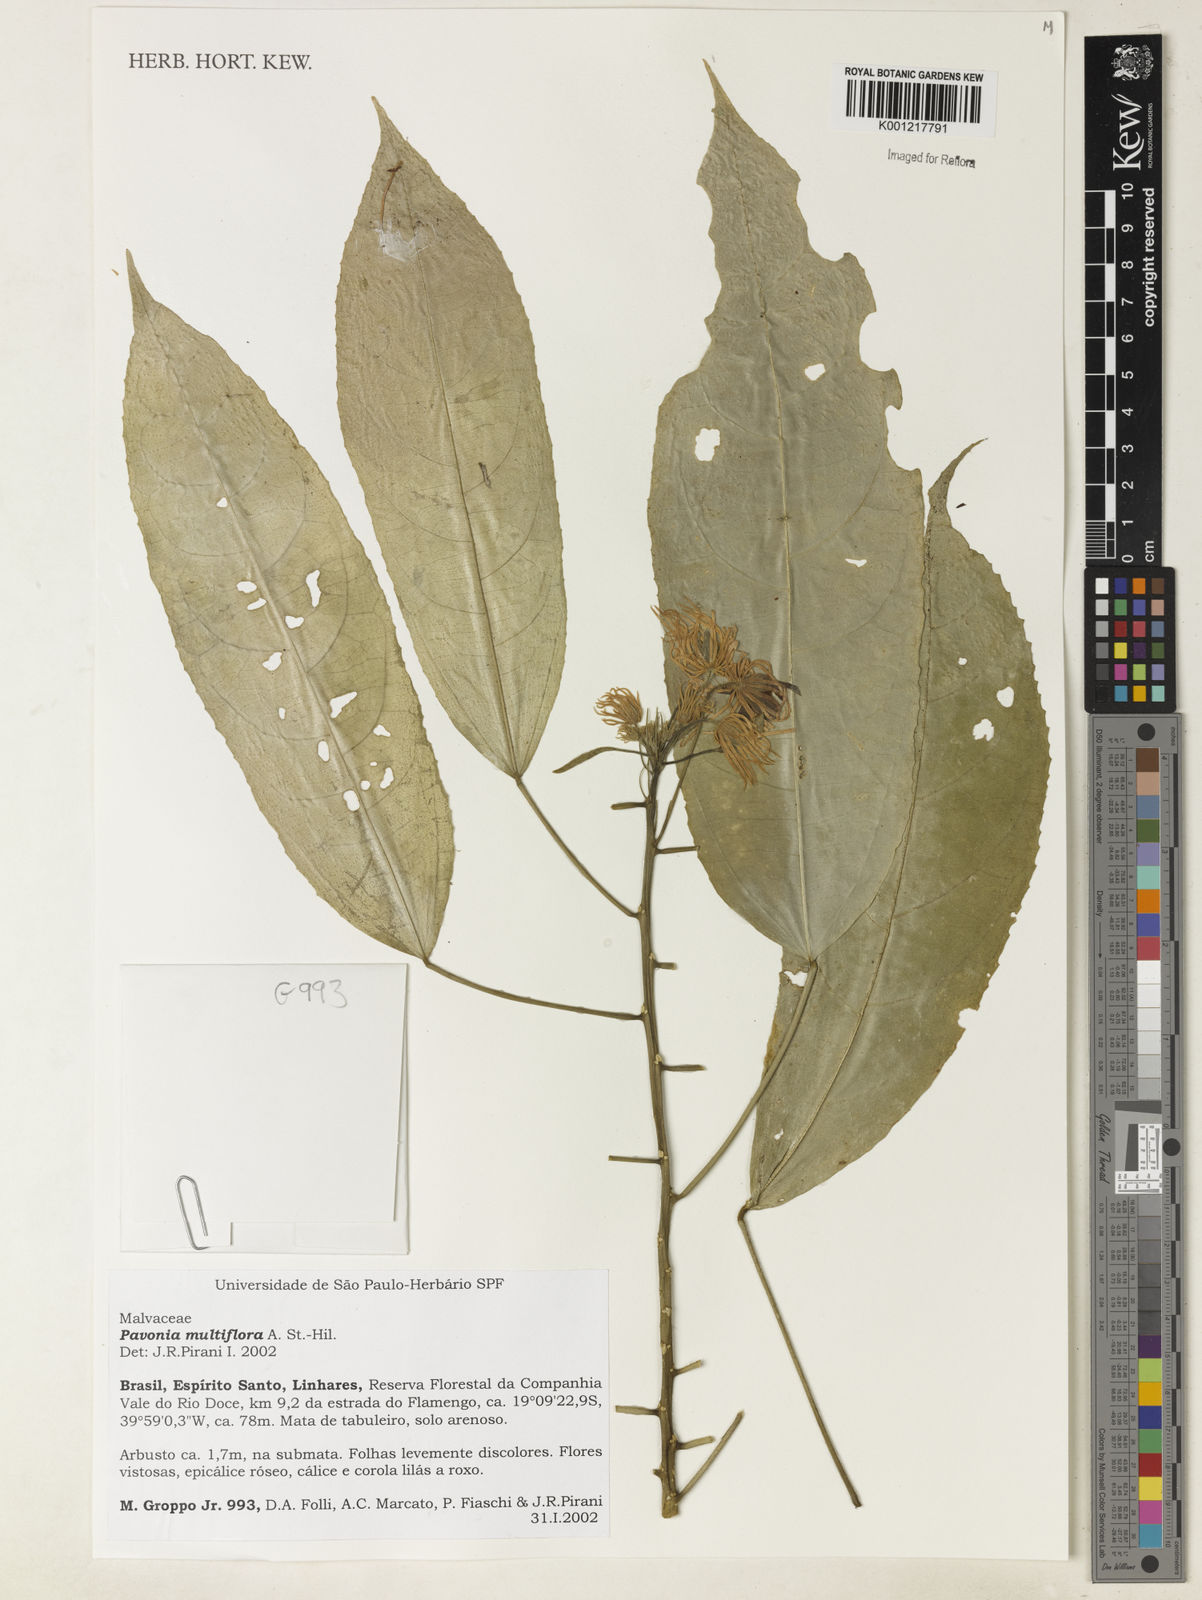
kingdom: Plantae
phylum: Tracheophyta
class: Magnoliopsida
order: Malvales
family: Malvaceae
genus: Pavonia
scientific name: Pavonia multiflora
